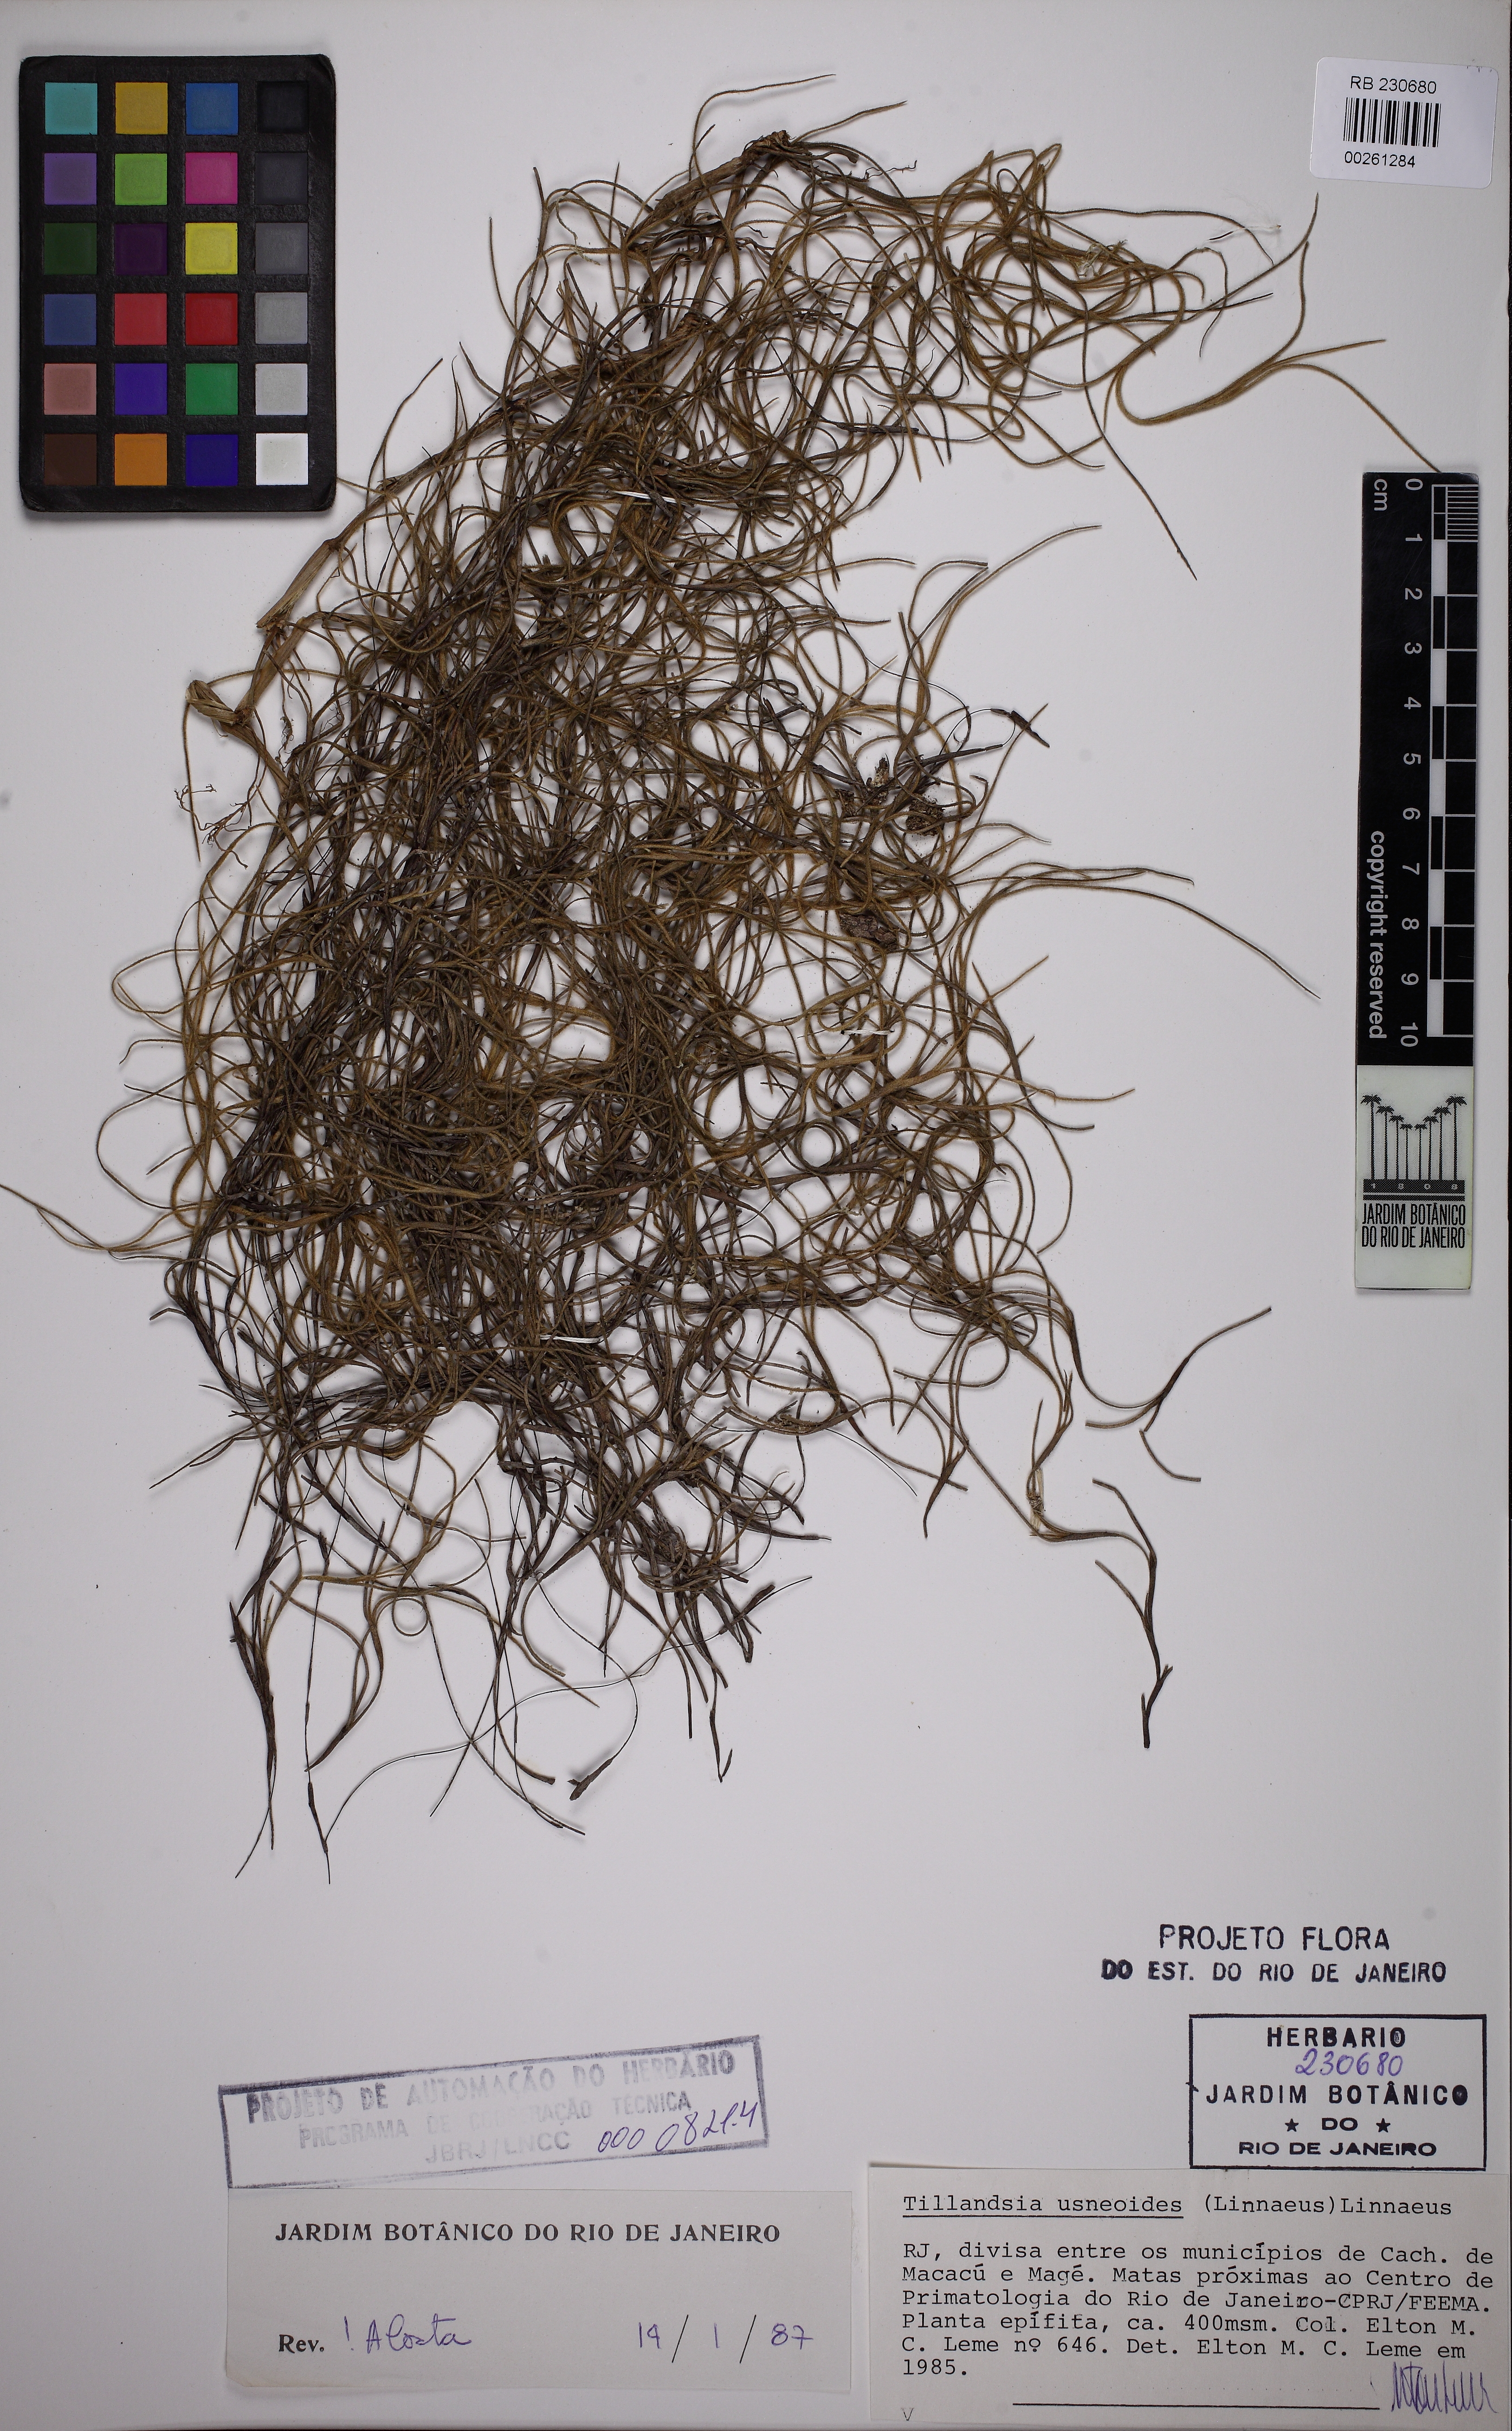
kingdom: Plantae
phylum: Tracheophyta
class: Liliopsida
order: Poales
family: Bromeliaceae
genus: Tillandsia
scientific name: Tillandsia usneoides
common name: Spanish moss
